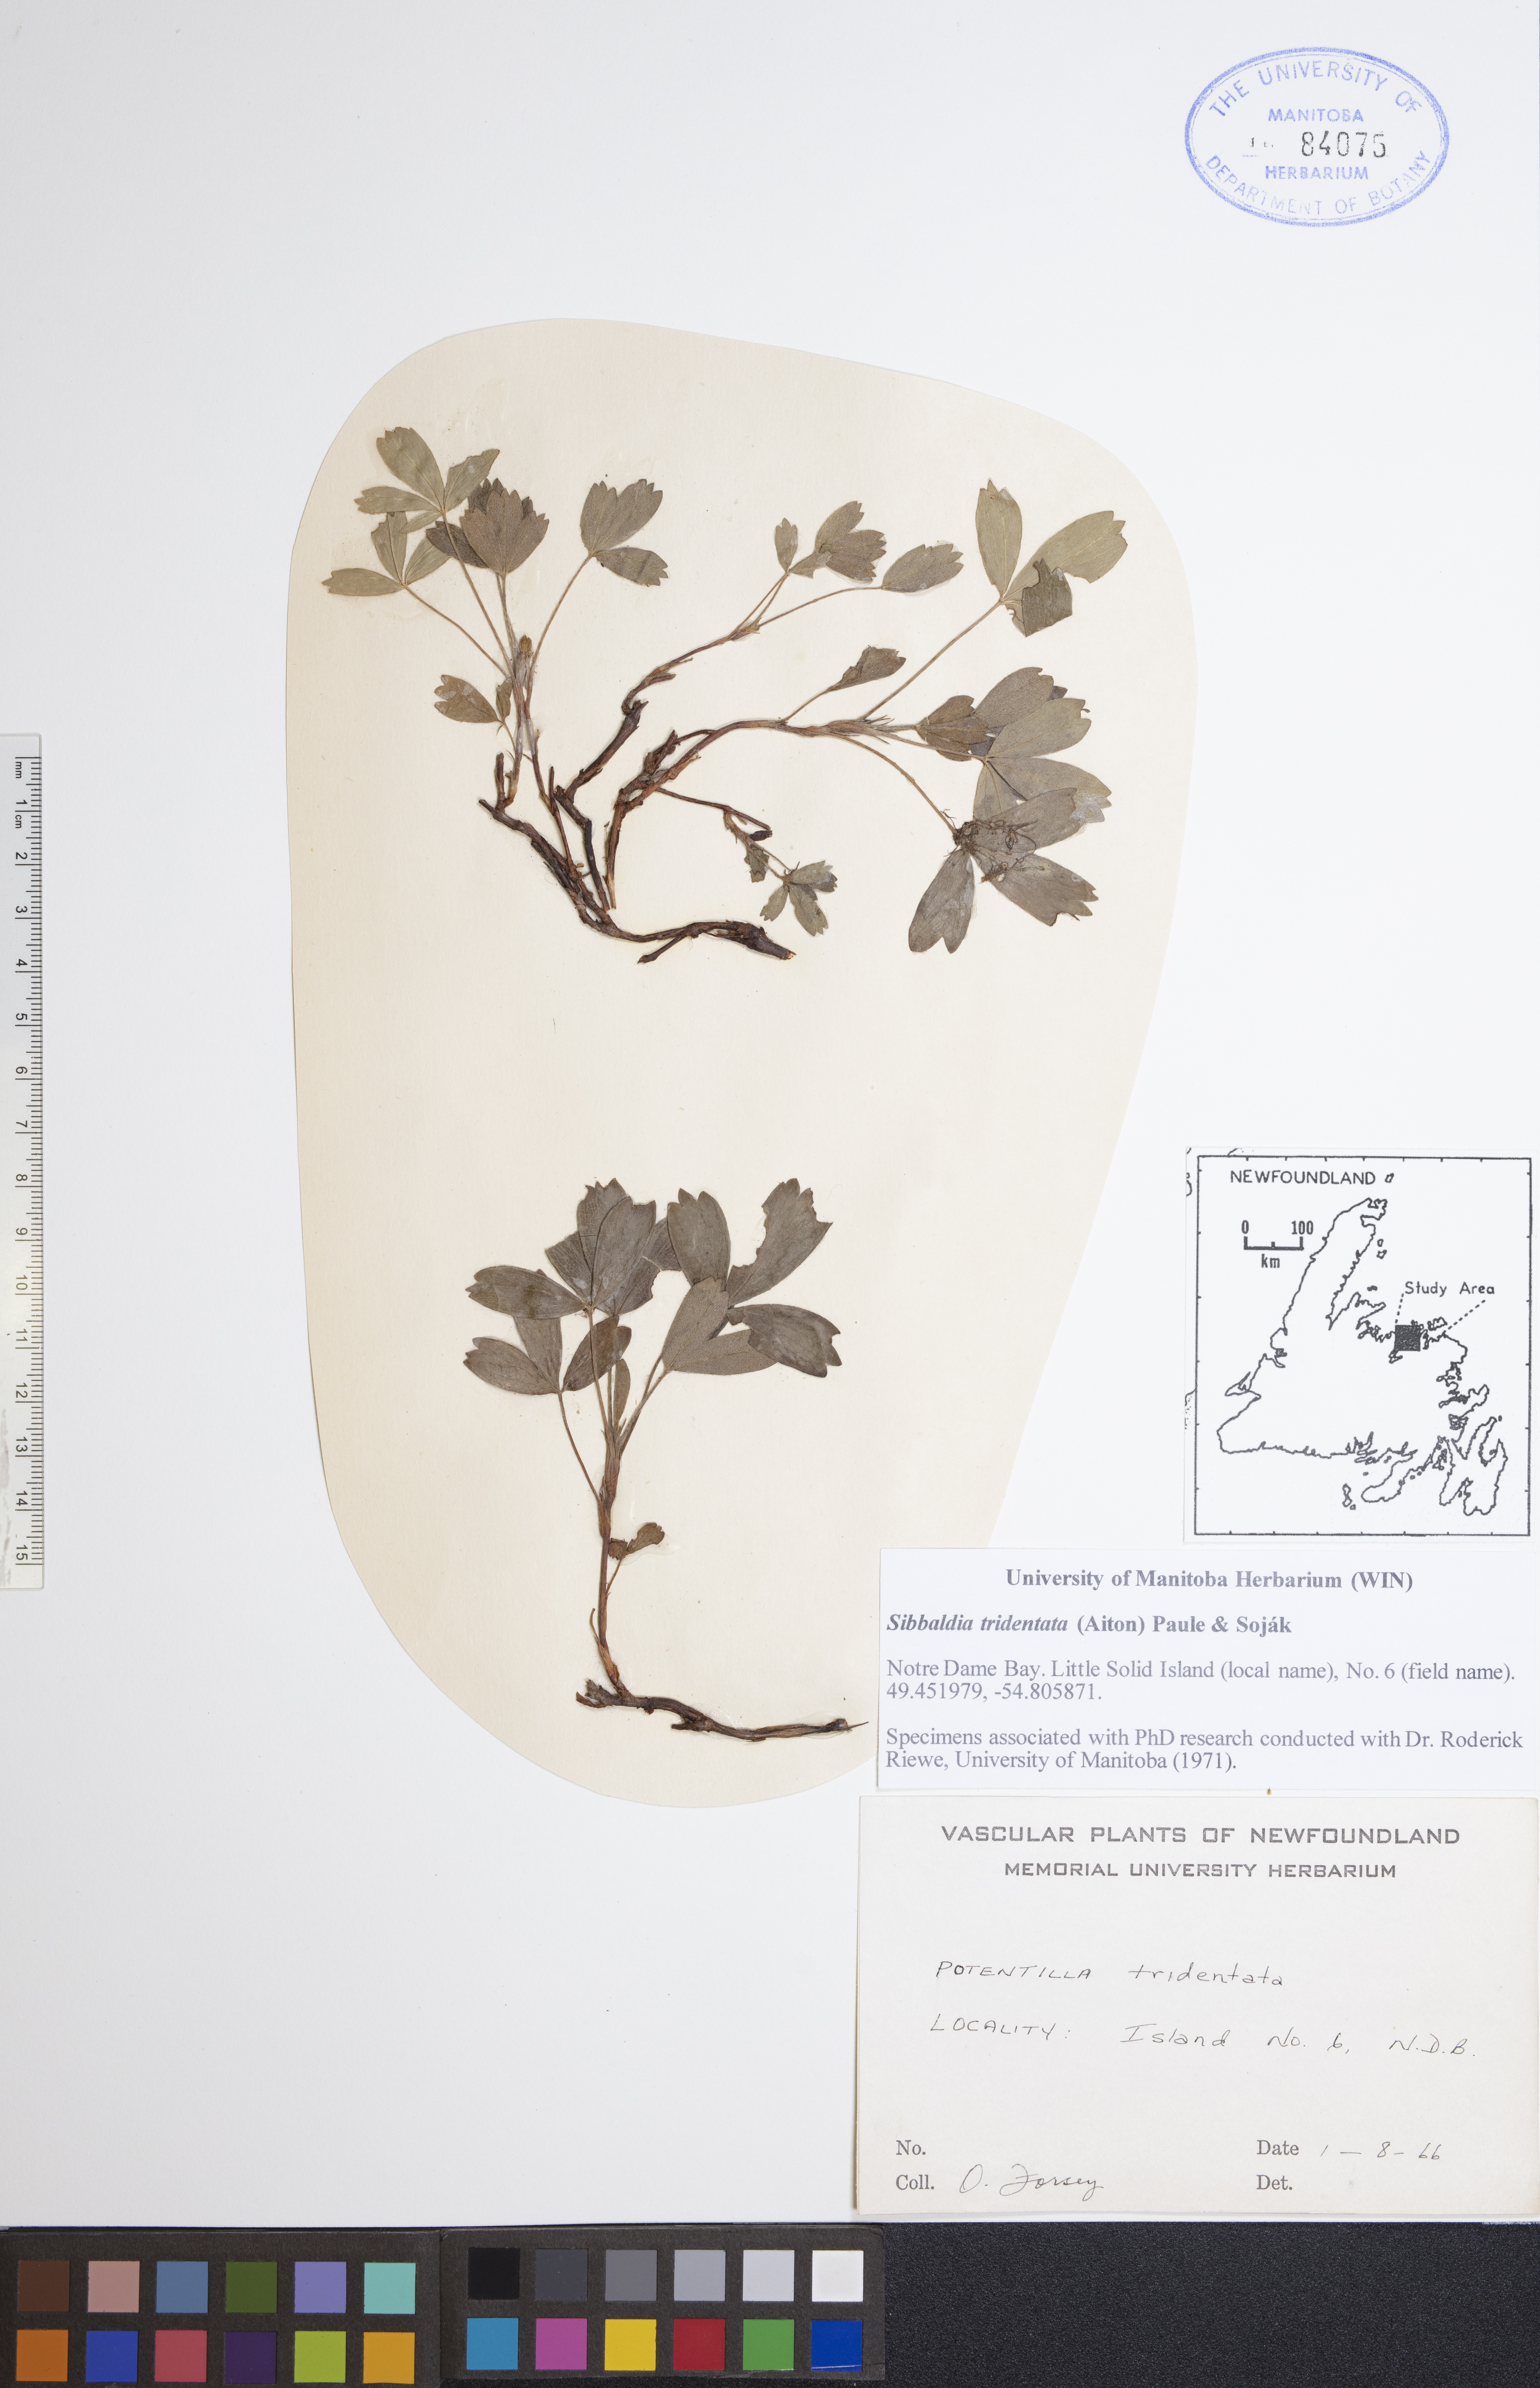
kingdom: Plantae
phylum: Tracheophyta
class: Magnoliopsida
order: Rosales
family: Rosaceae
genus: Sibbaldia
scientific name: Sibbaldia tridentata
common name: Three-toothed cinquefoil
